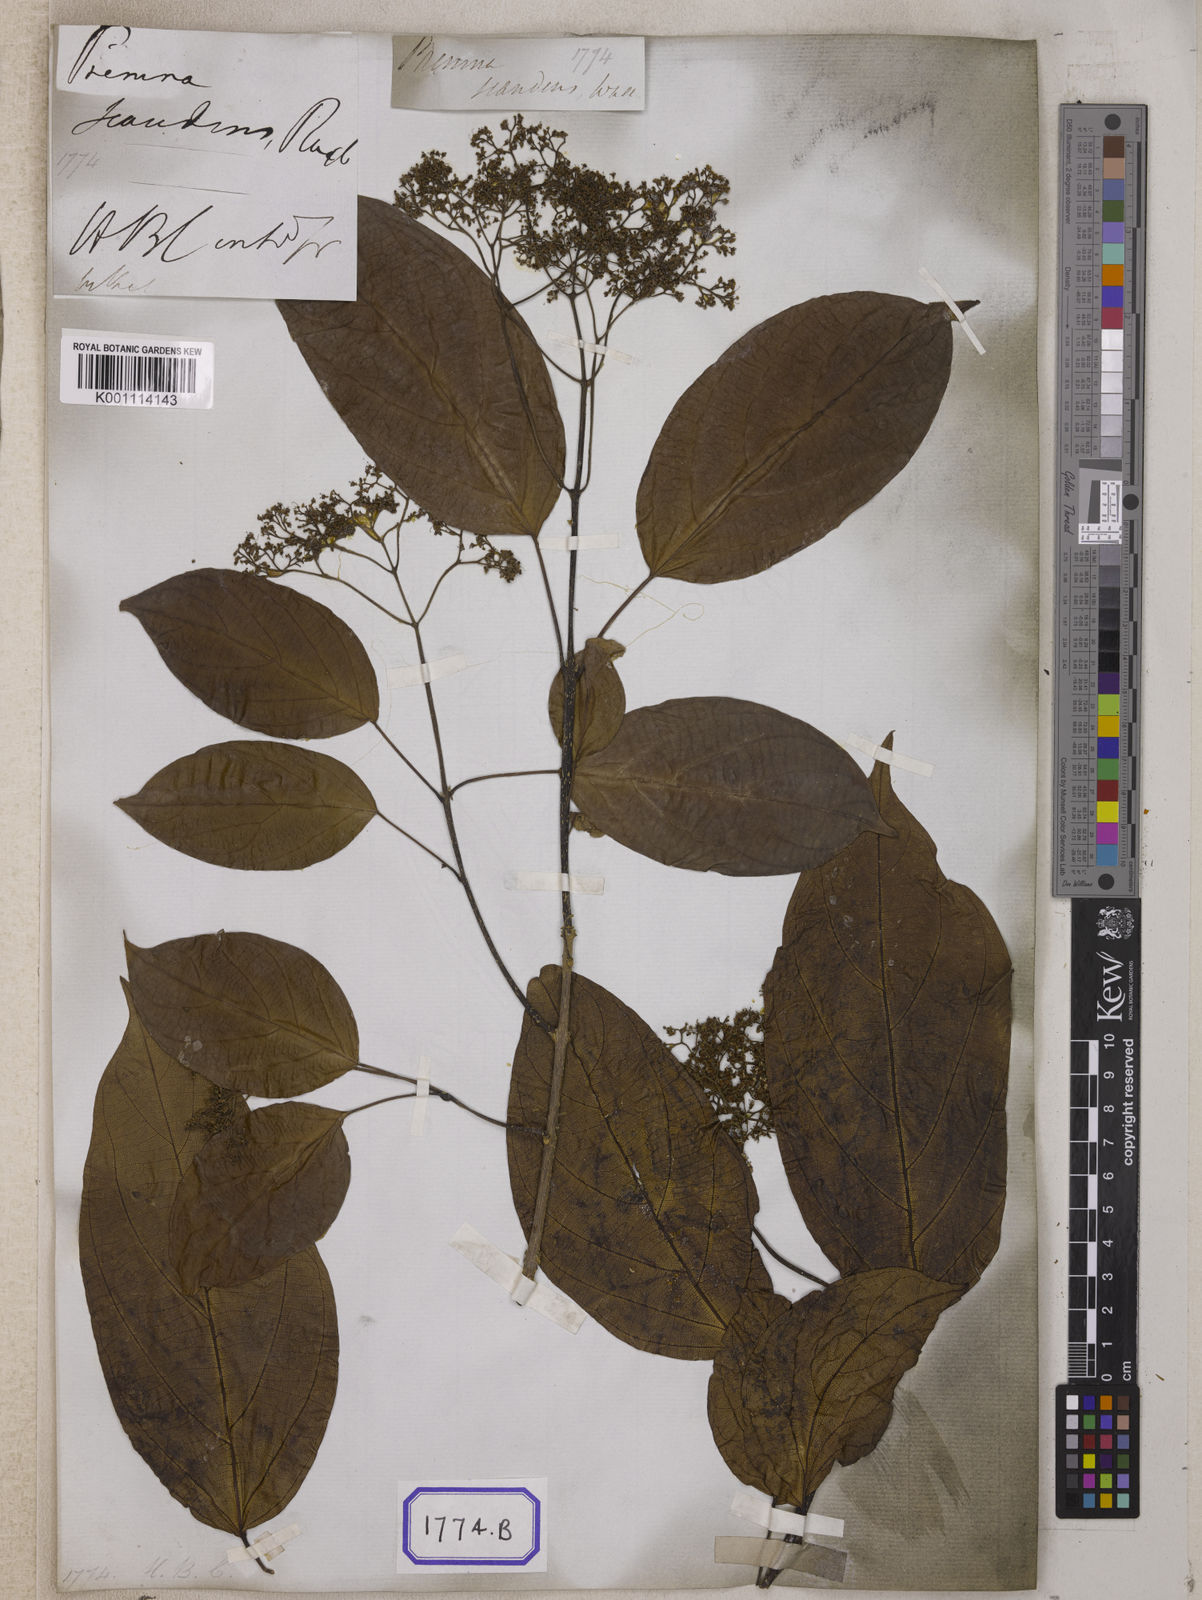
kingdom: Plantae
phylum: Tracheophyta
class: Magnoliopsida
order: Lamiales
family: Lamiaceae
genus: Premna
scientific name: Premna scandens
